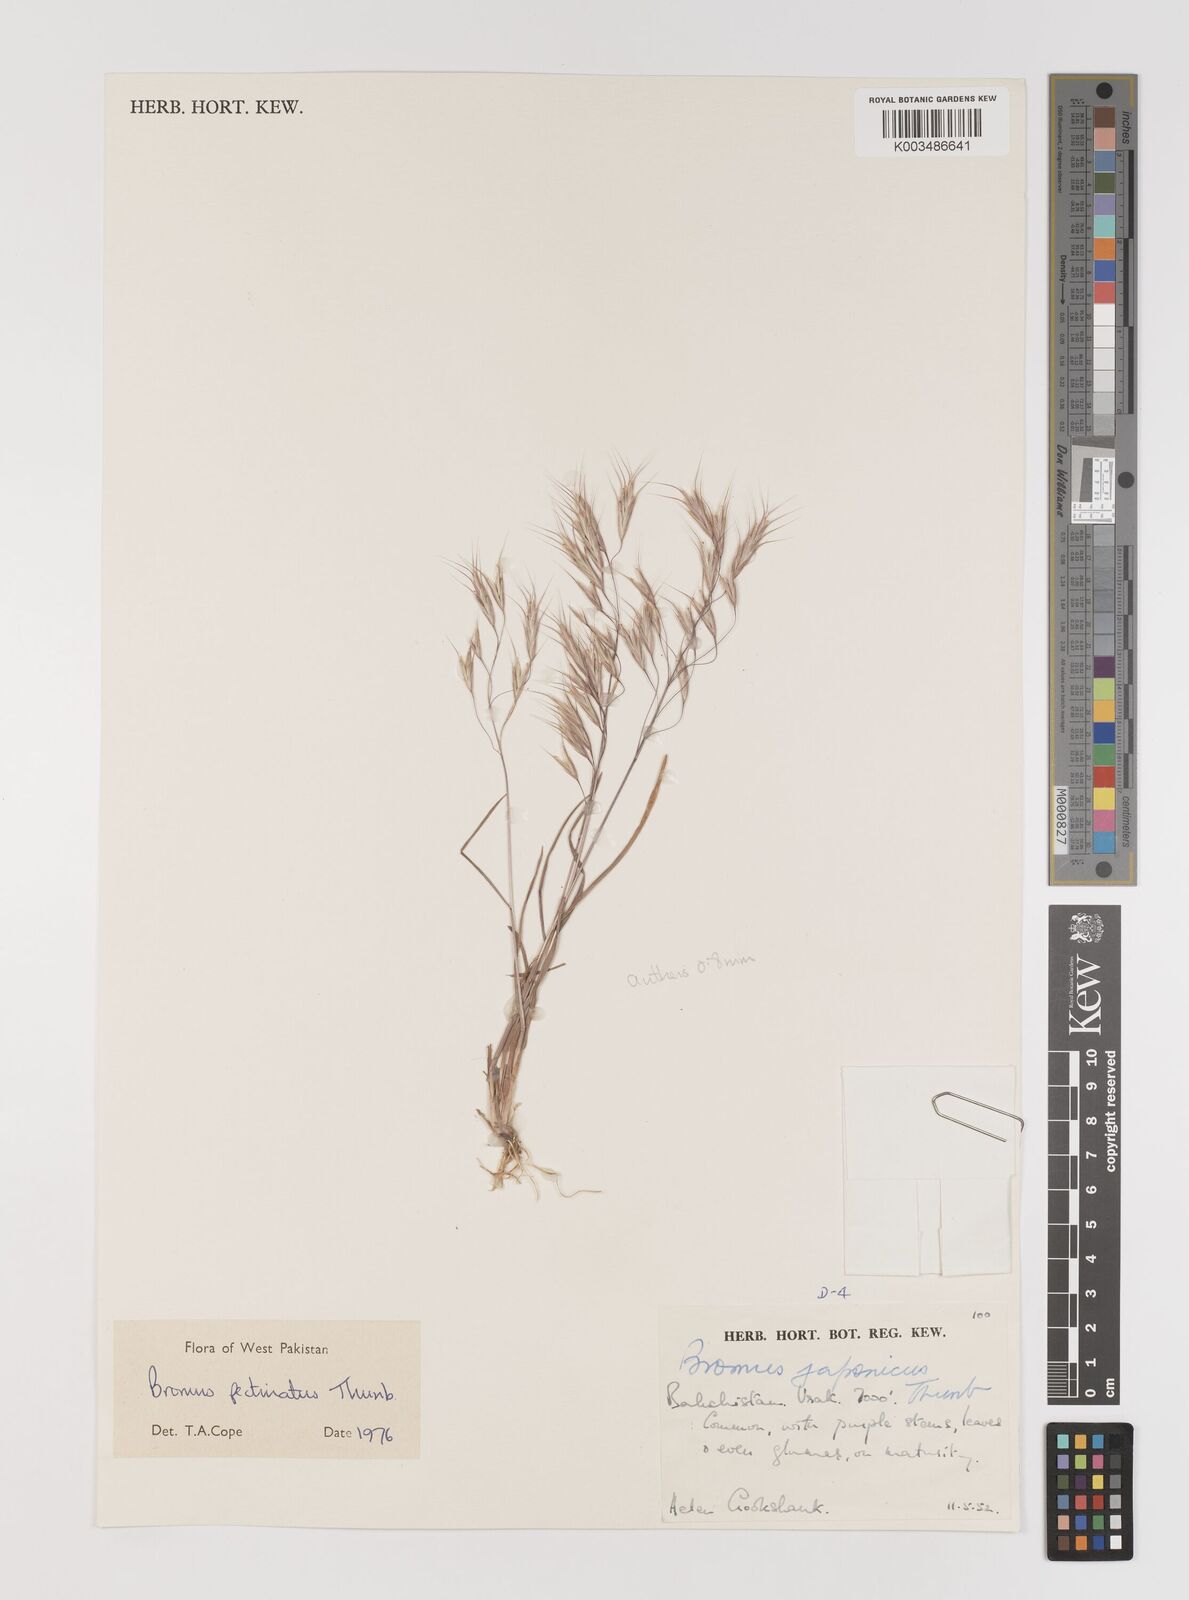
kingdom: Plantae
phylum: Tracheophyta
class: Liliopsida
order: Poales
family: Poaceae
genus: Bromus
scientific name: Bromus pectinatus
